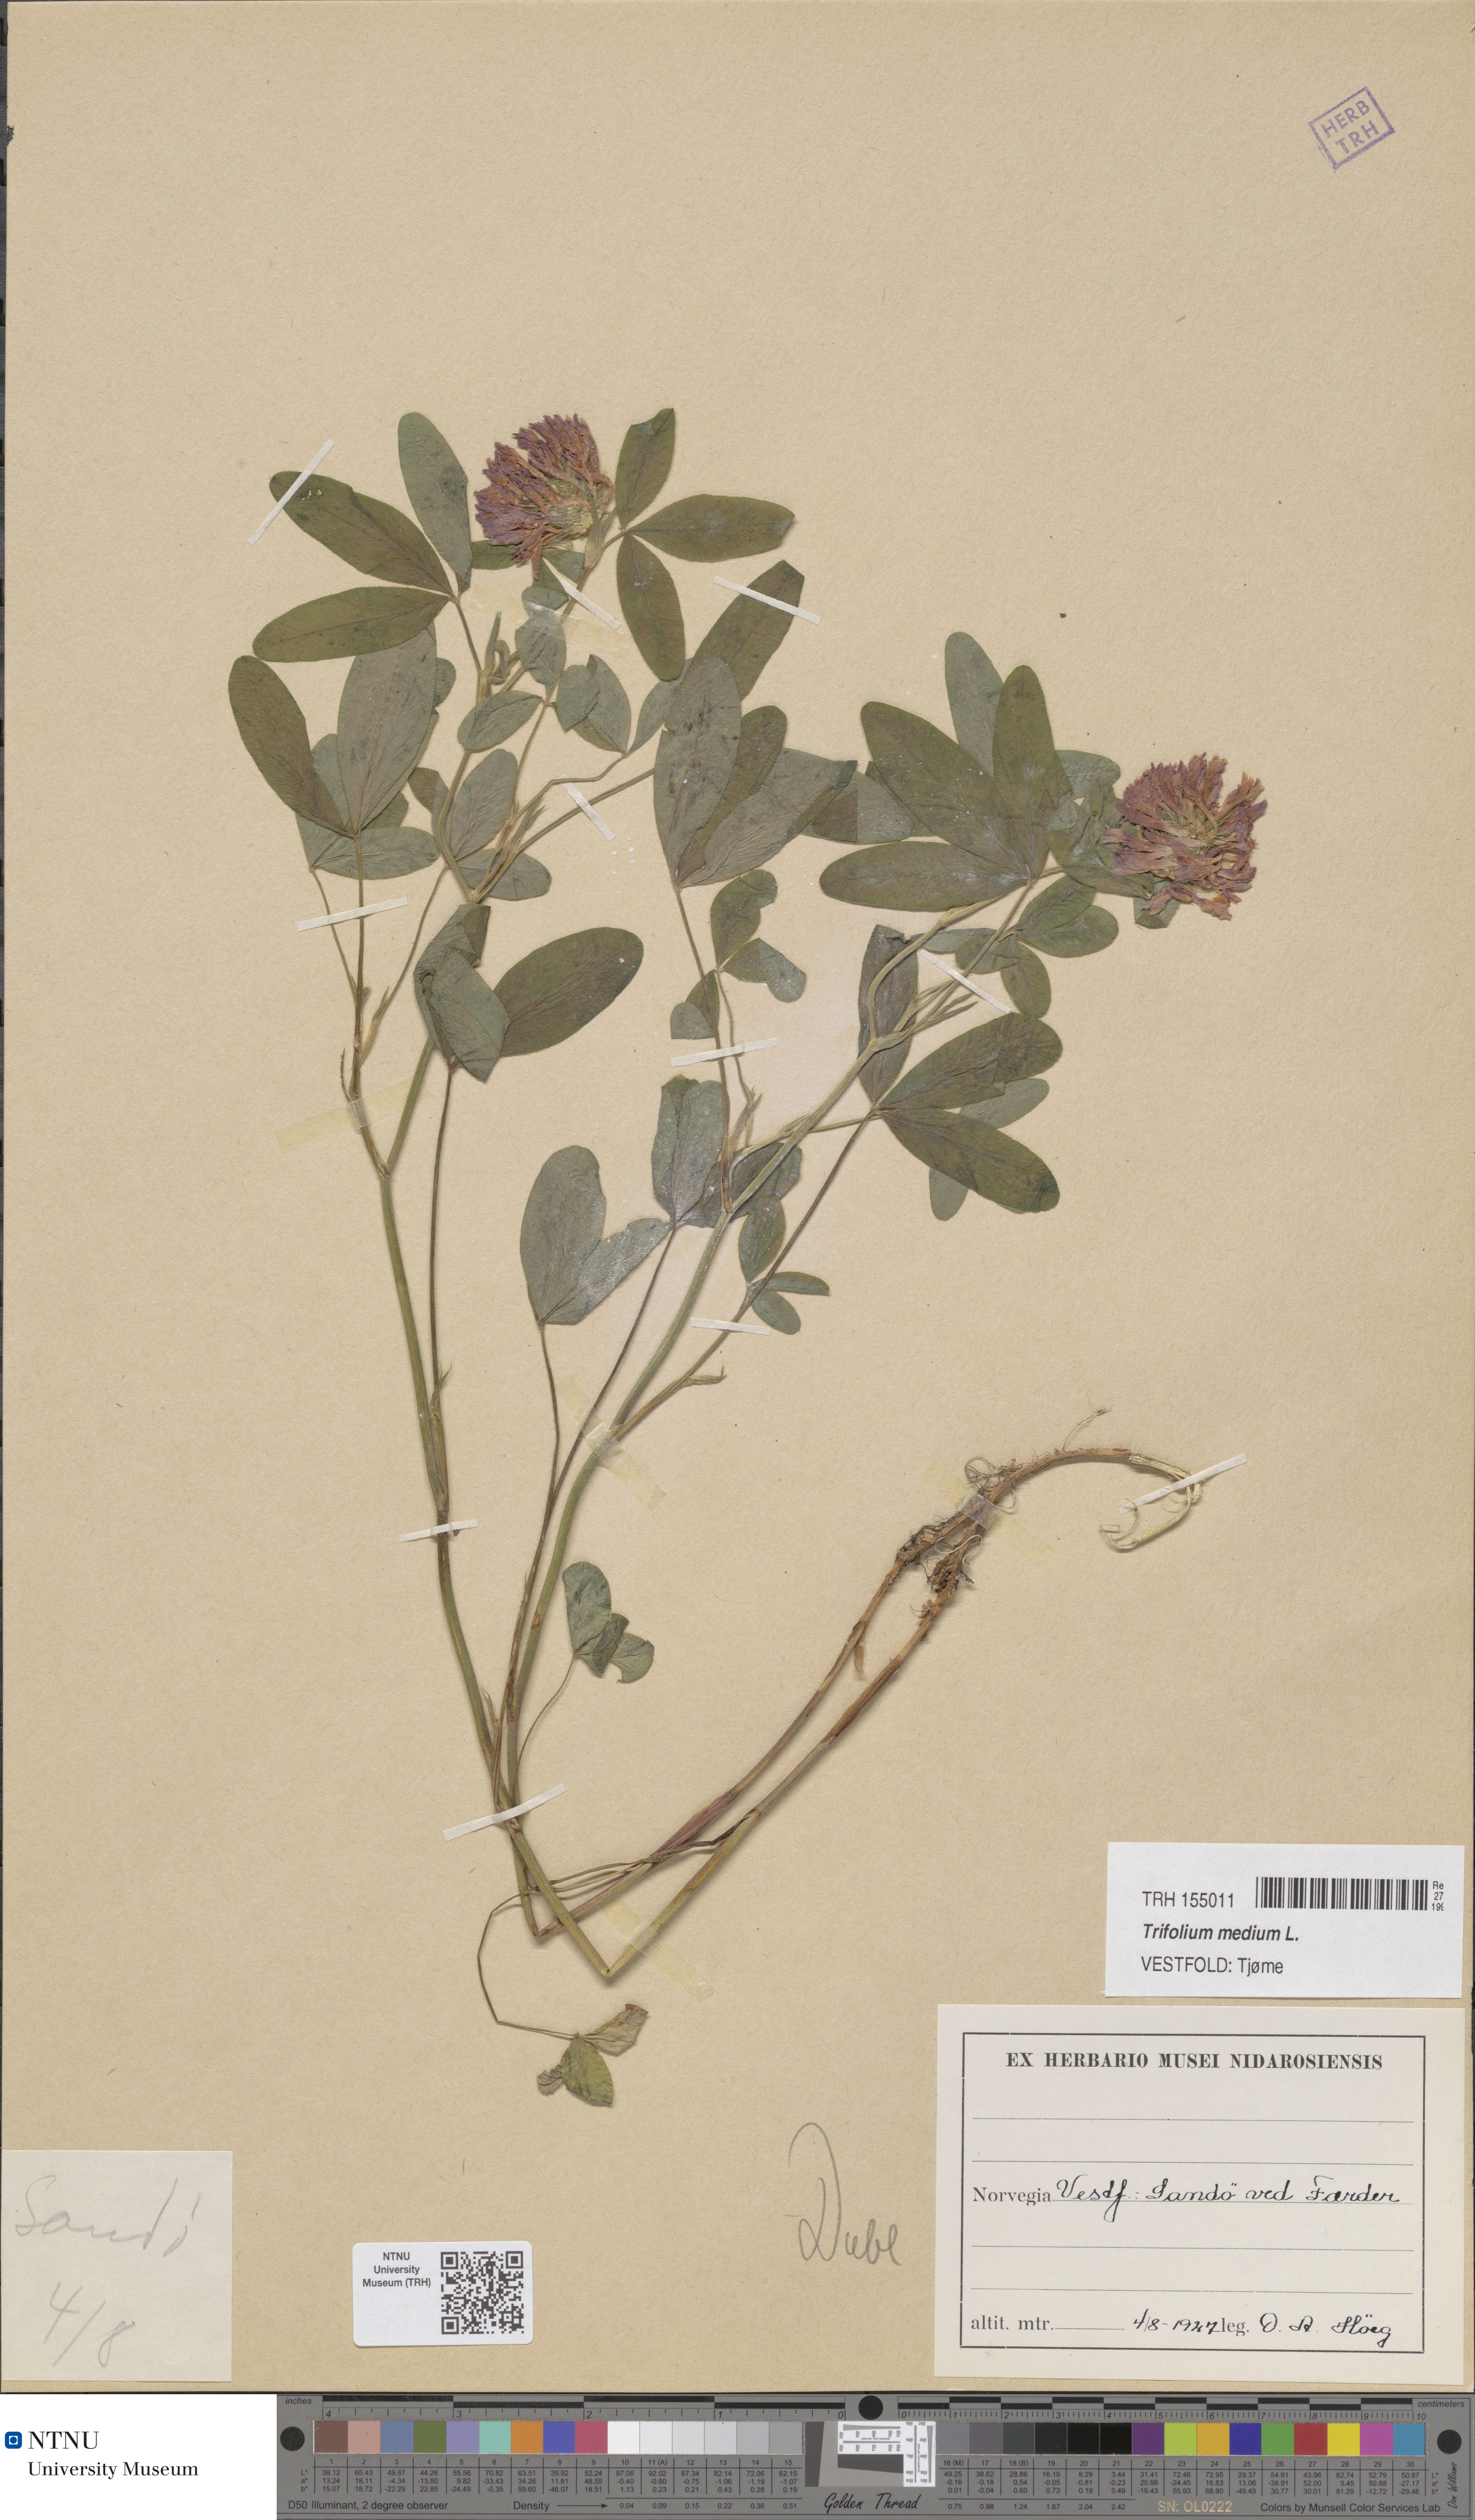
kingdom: Plantae
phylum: Tracheophyta
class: Magnoliopsida
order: Fabales
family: Fabaceae
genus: Trifolium
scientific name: Trifolium medium
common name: Zigzag clover
